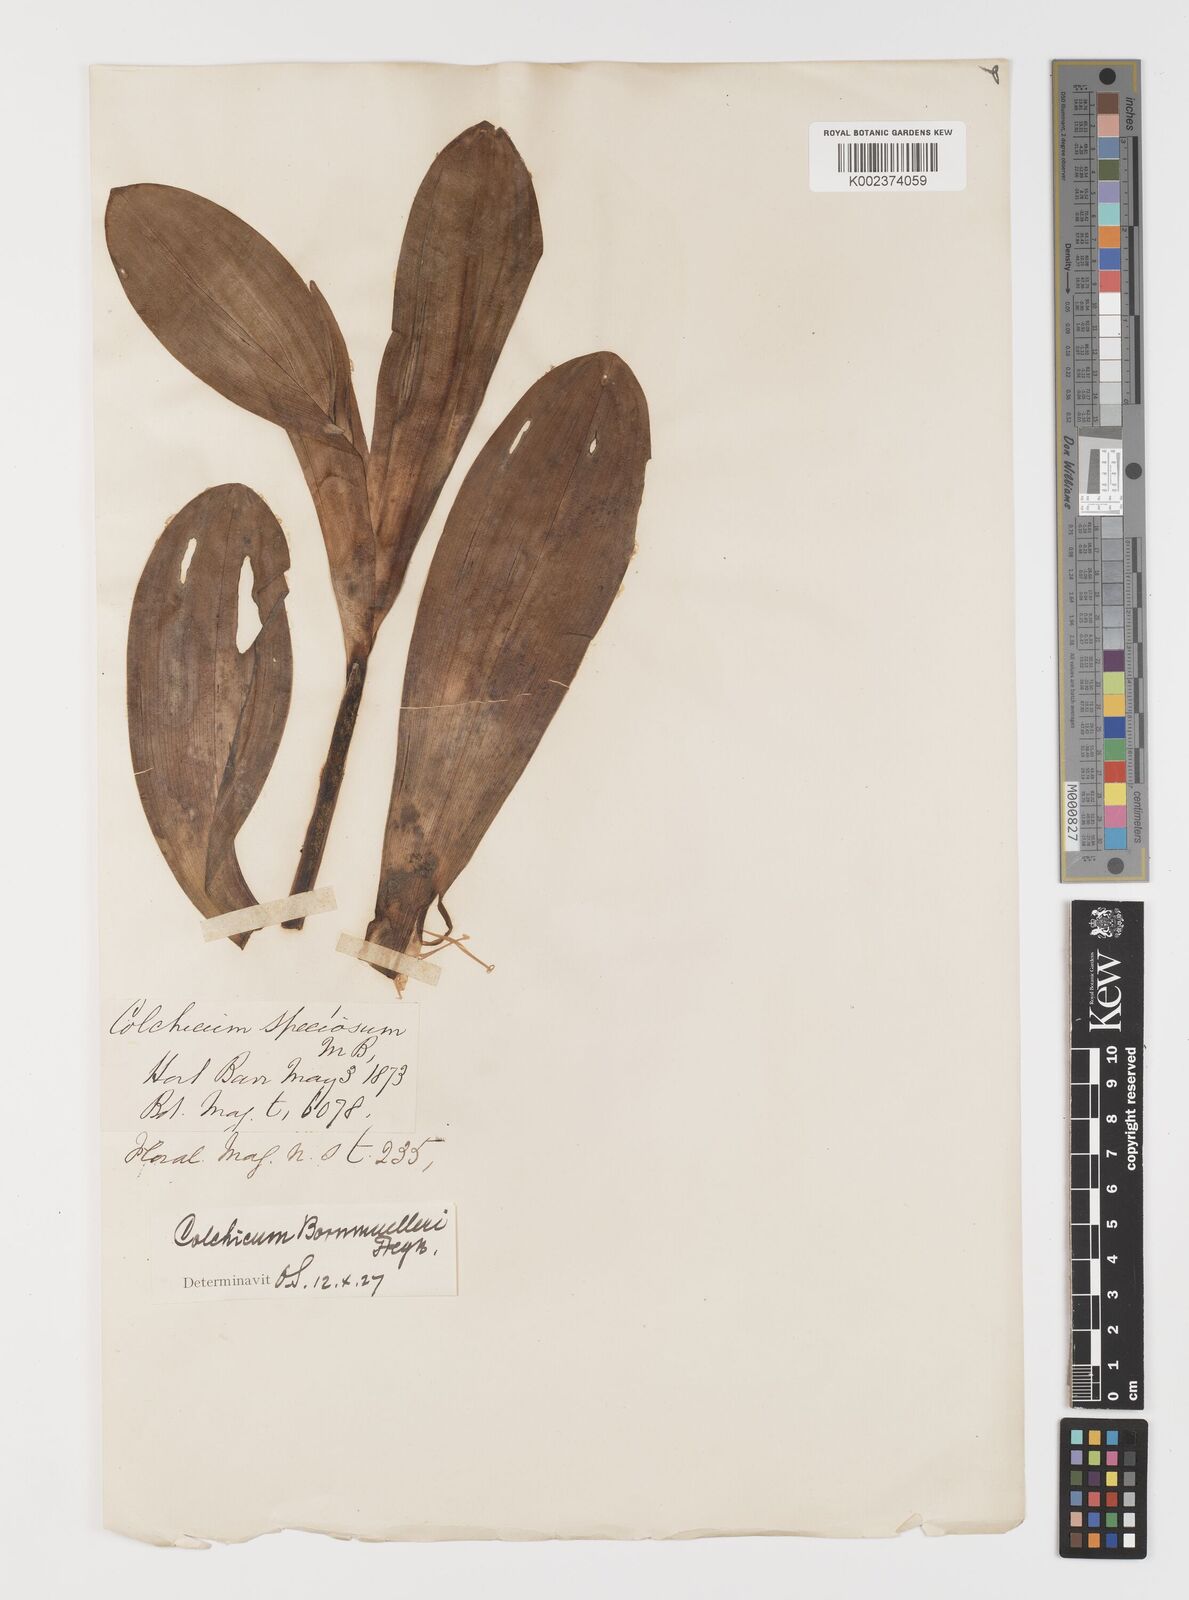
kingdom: Plantae
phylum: Tracheophyta
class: Liliopsida
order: Liliales
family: Colchicaceae
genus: Colchicum
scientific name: Colchicum speciosum
